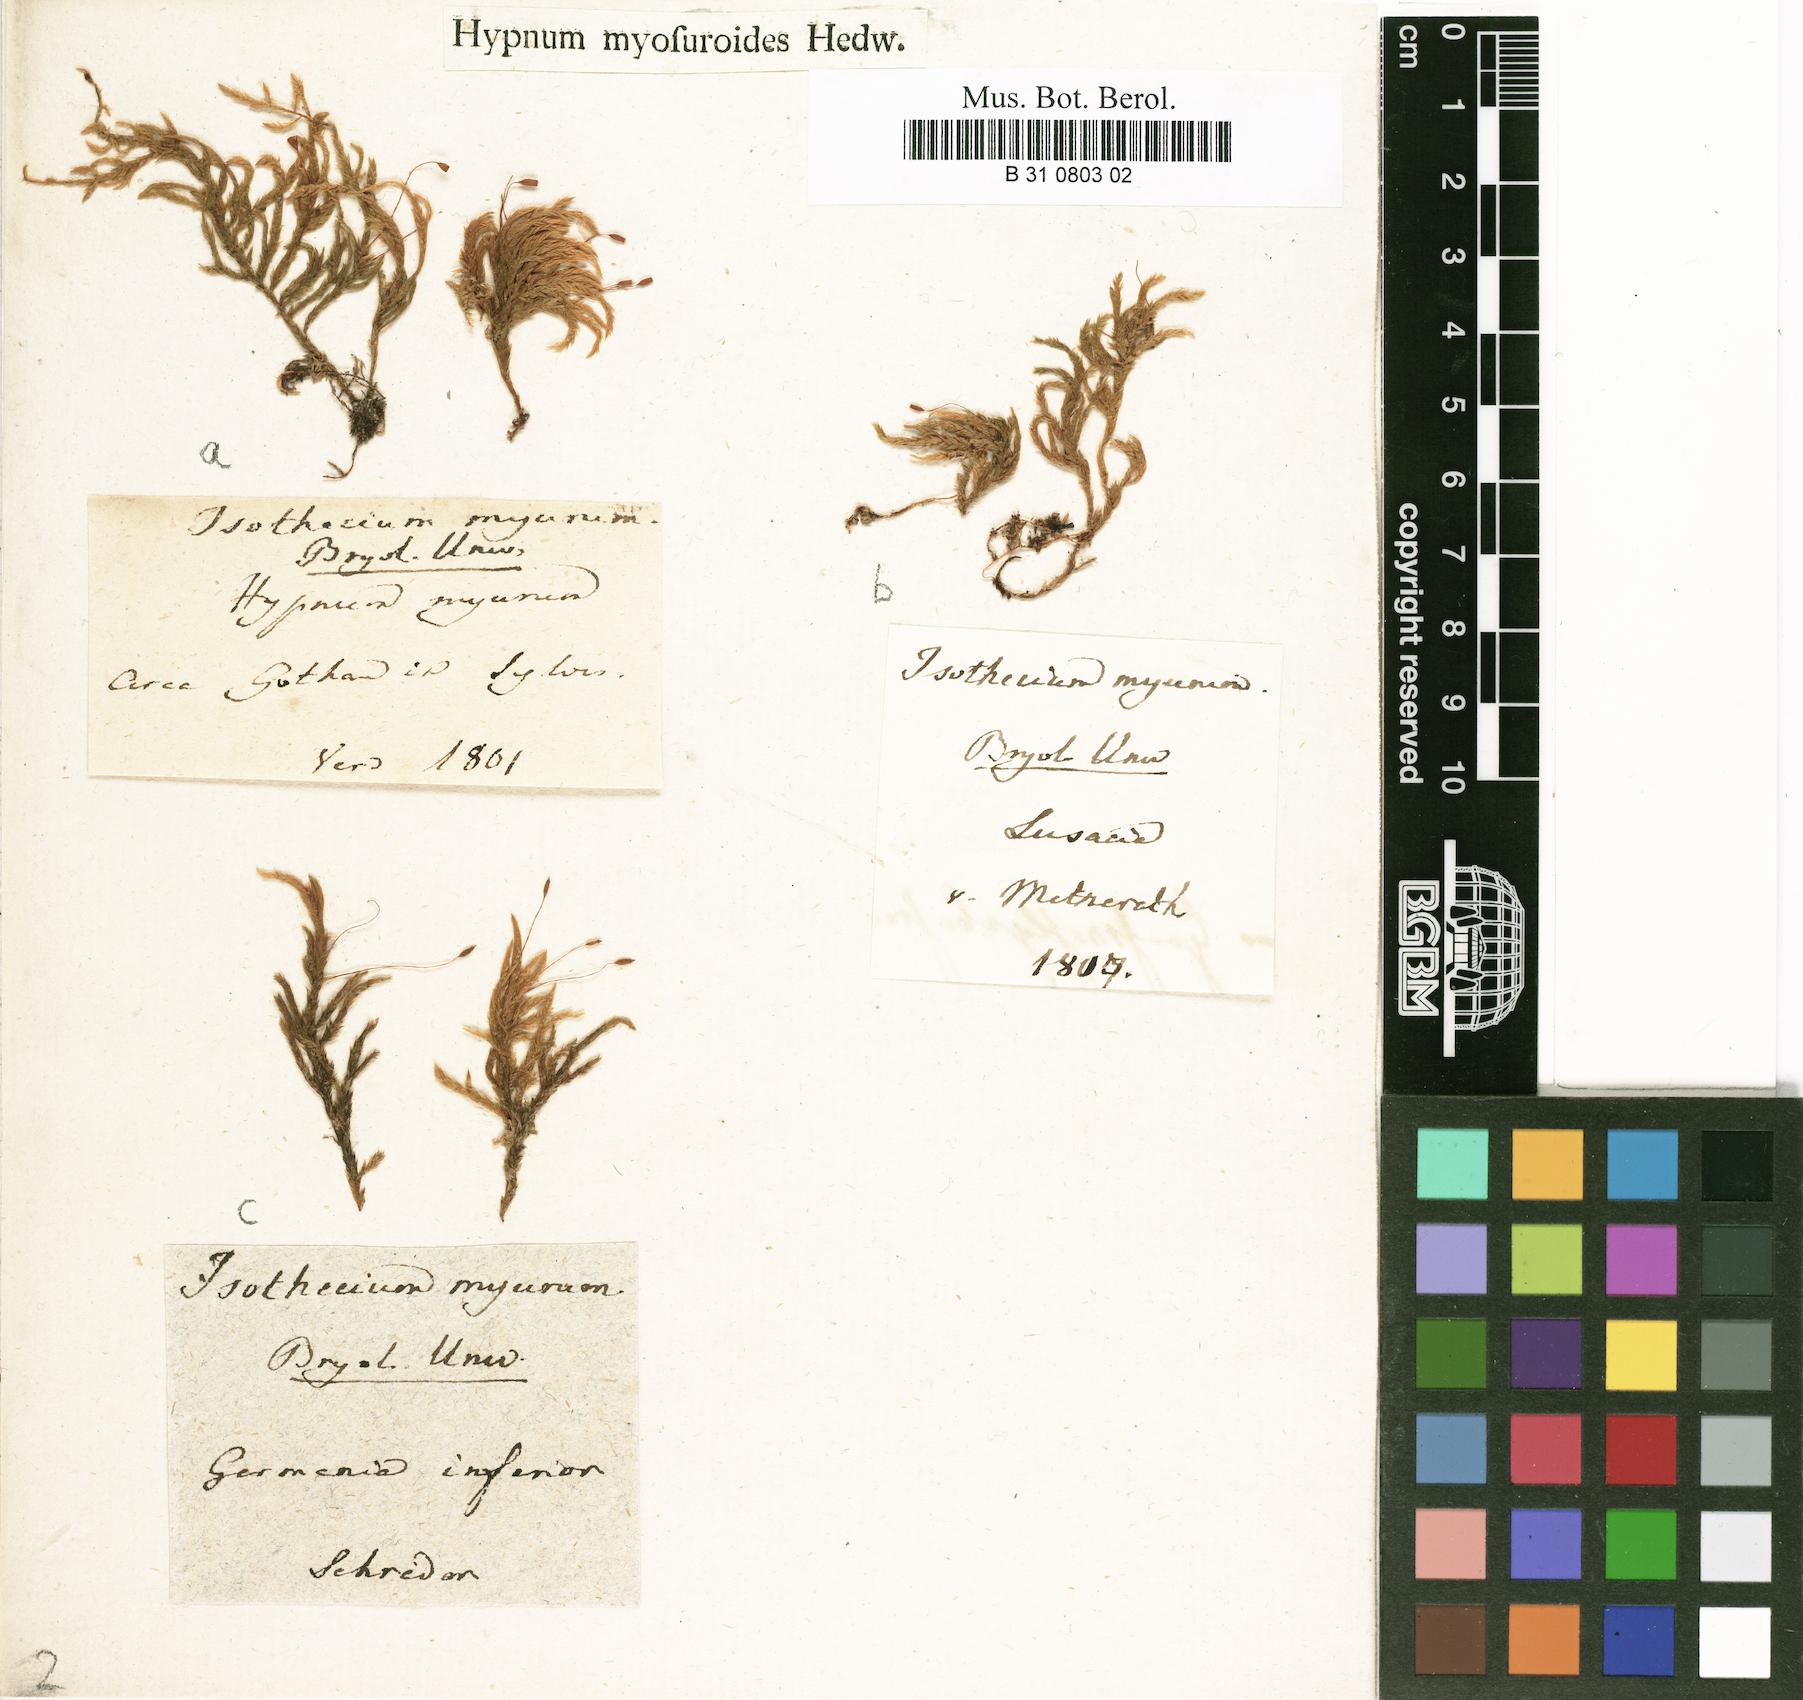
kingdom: Plantae
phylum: Bryophyta
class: Bryopsida
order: Hypnales
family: Lembophyllaceae
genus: Isothecium
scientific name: Isothecium alopecuroides
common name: Larger mouse-tail moss
